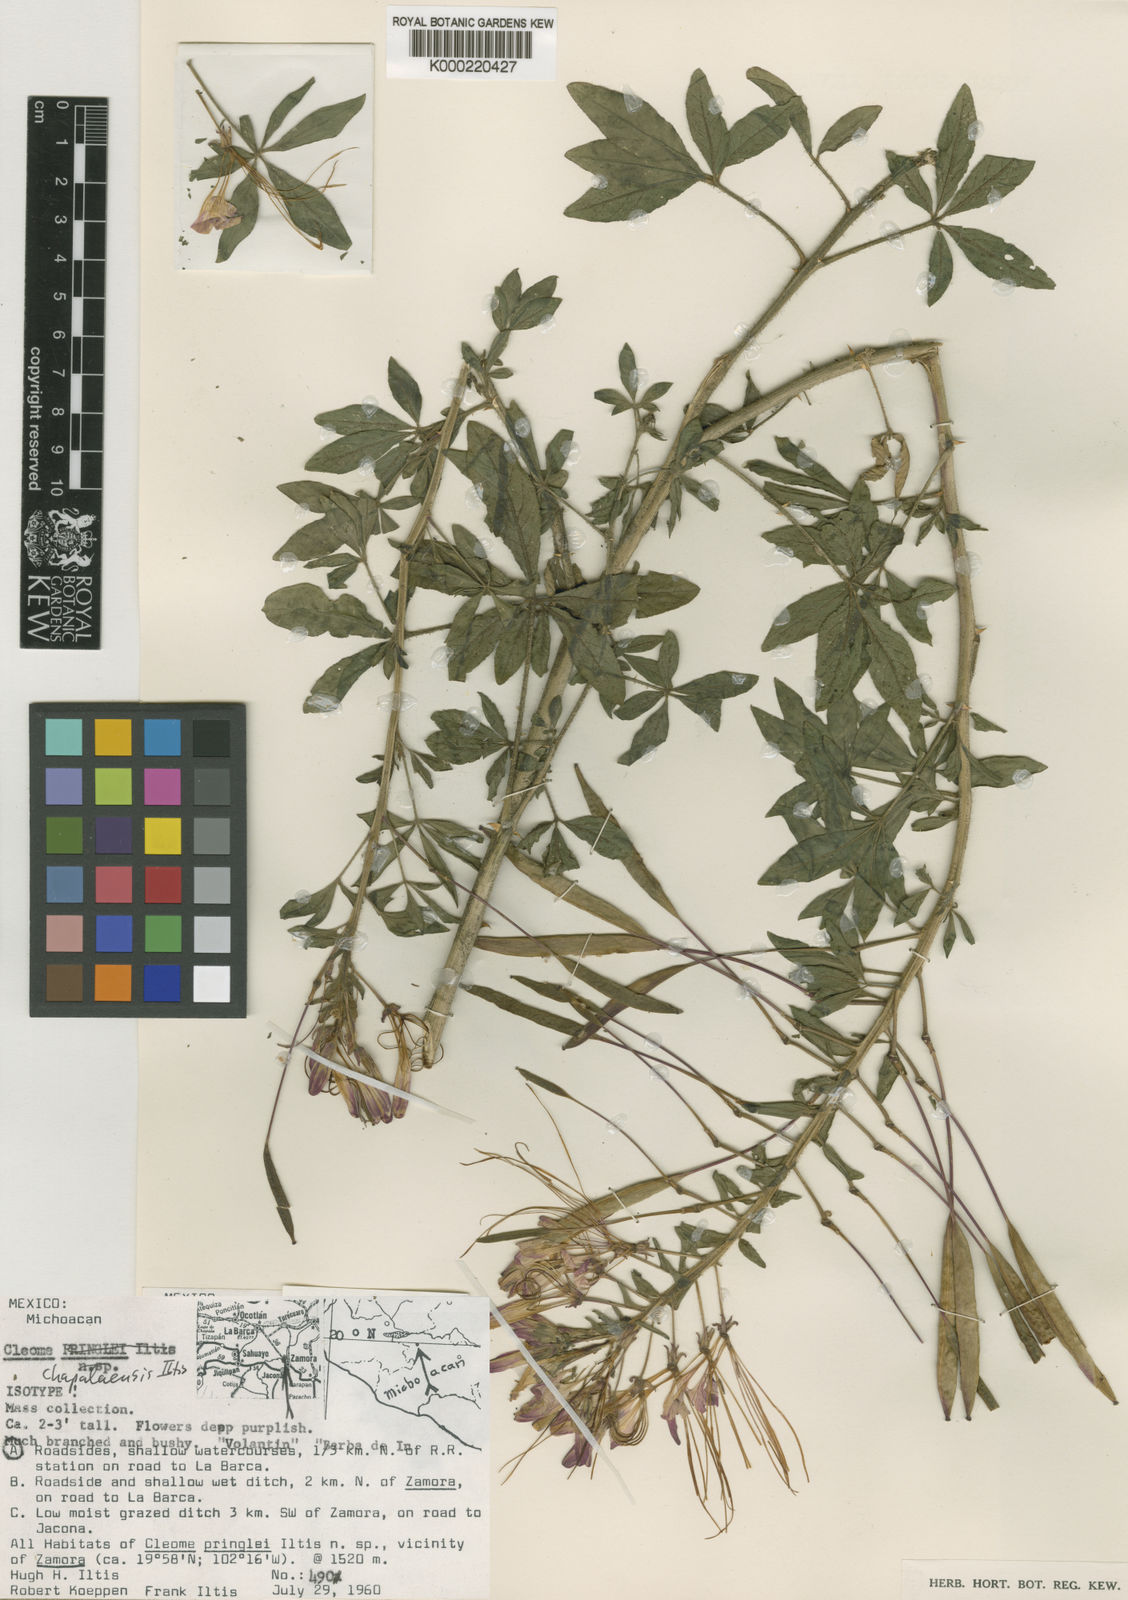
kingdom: Plantae
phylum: Tracheophyta
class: Magnoliopsida
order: Brassicales
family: Cleomaceae
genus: Tarenaya
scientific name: Tarenaya chapalensis
